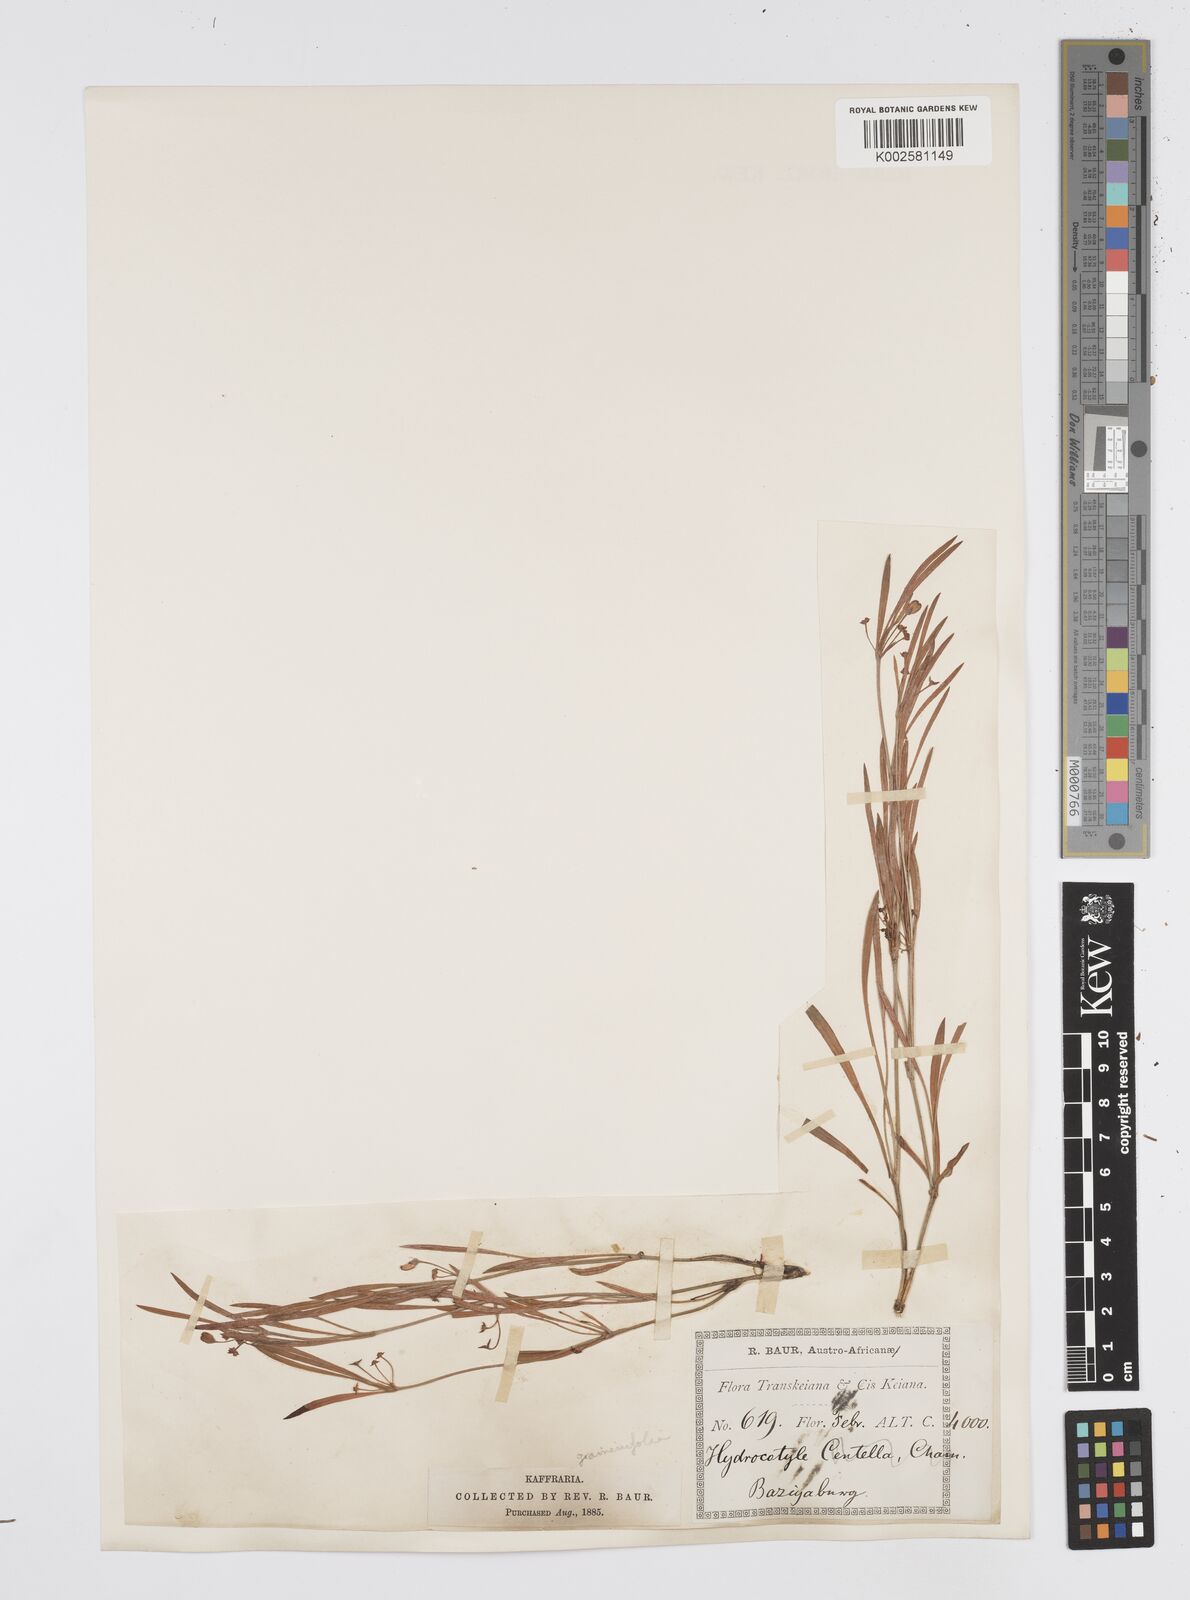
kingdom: Plantae
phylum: Tracheophyta
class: Magnoliopsida
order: Apiales
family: Apiaceae
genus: Centella
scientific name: Centella graminifolia
